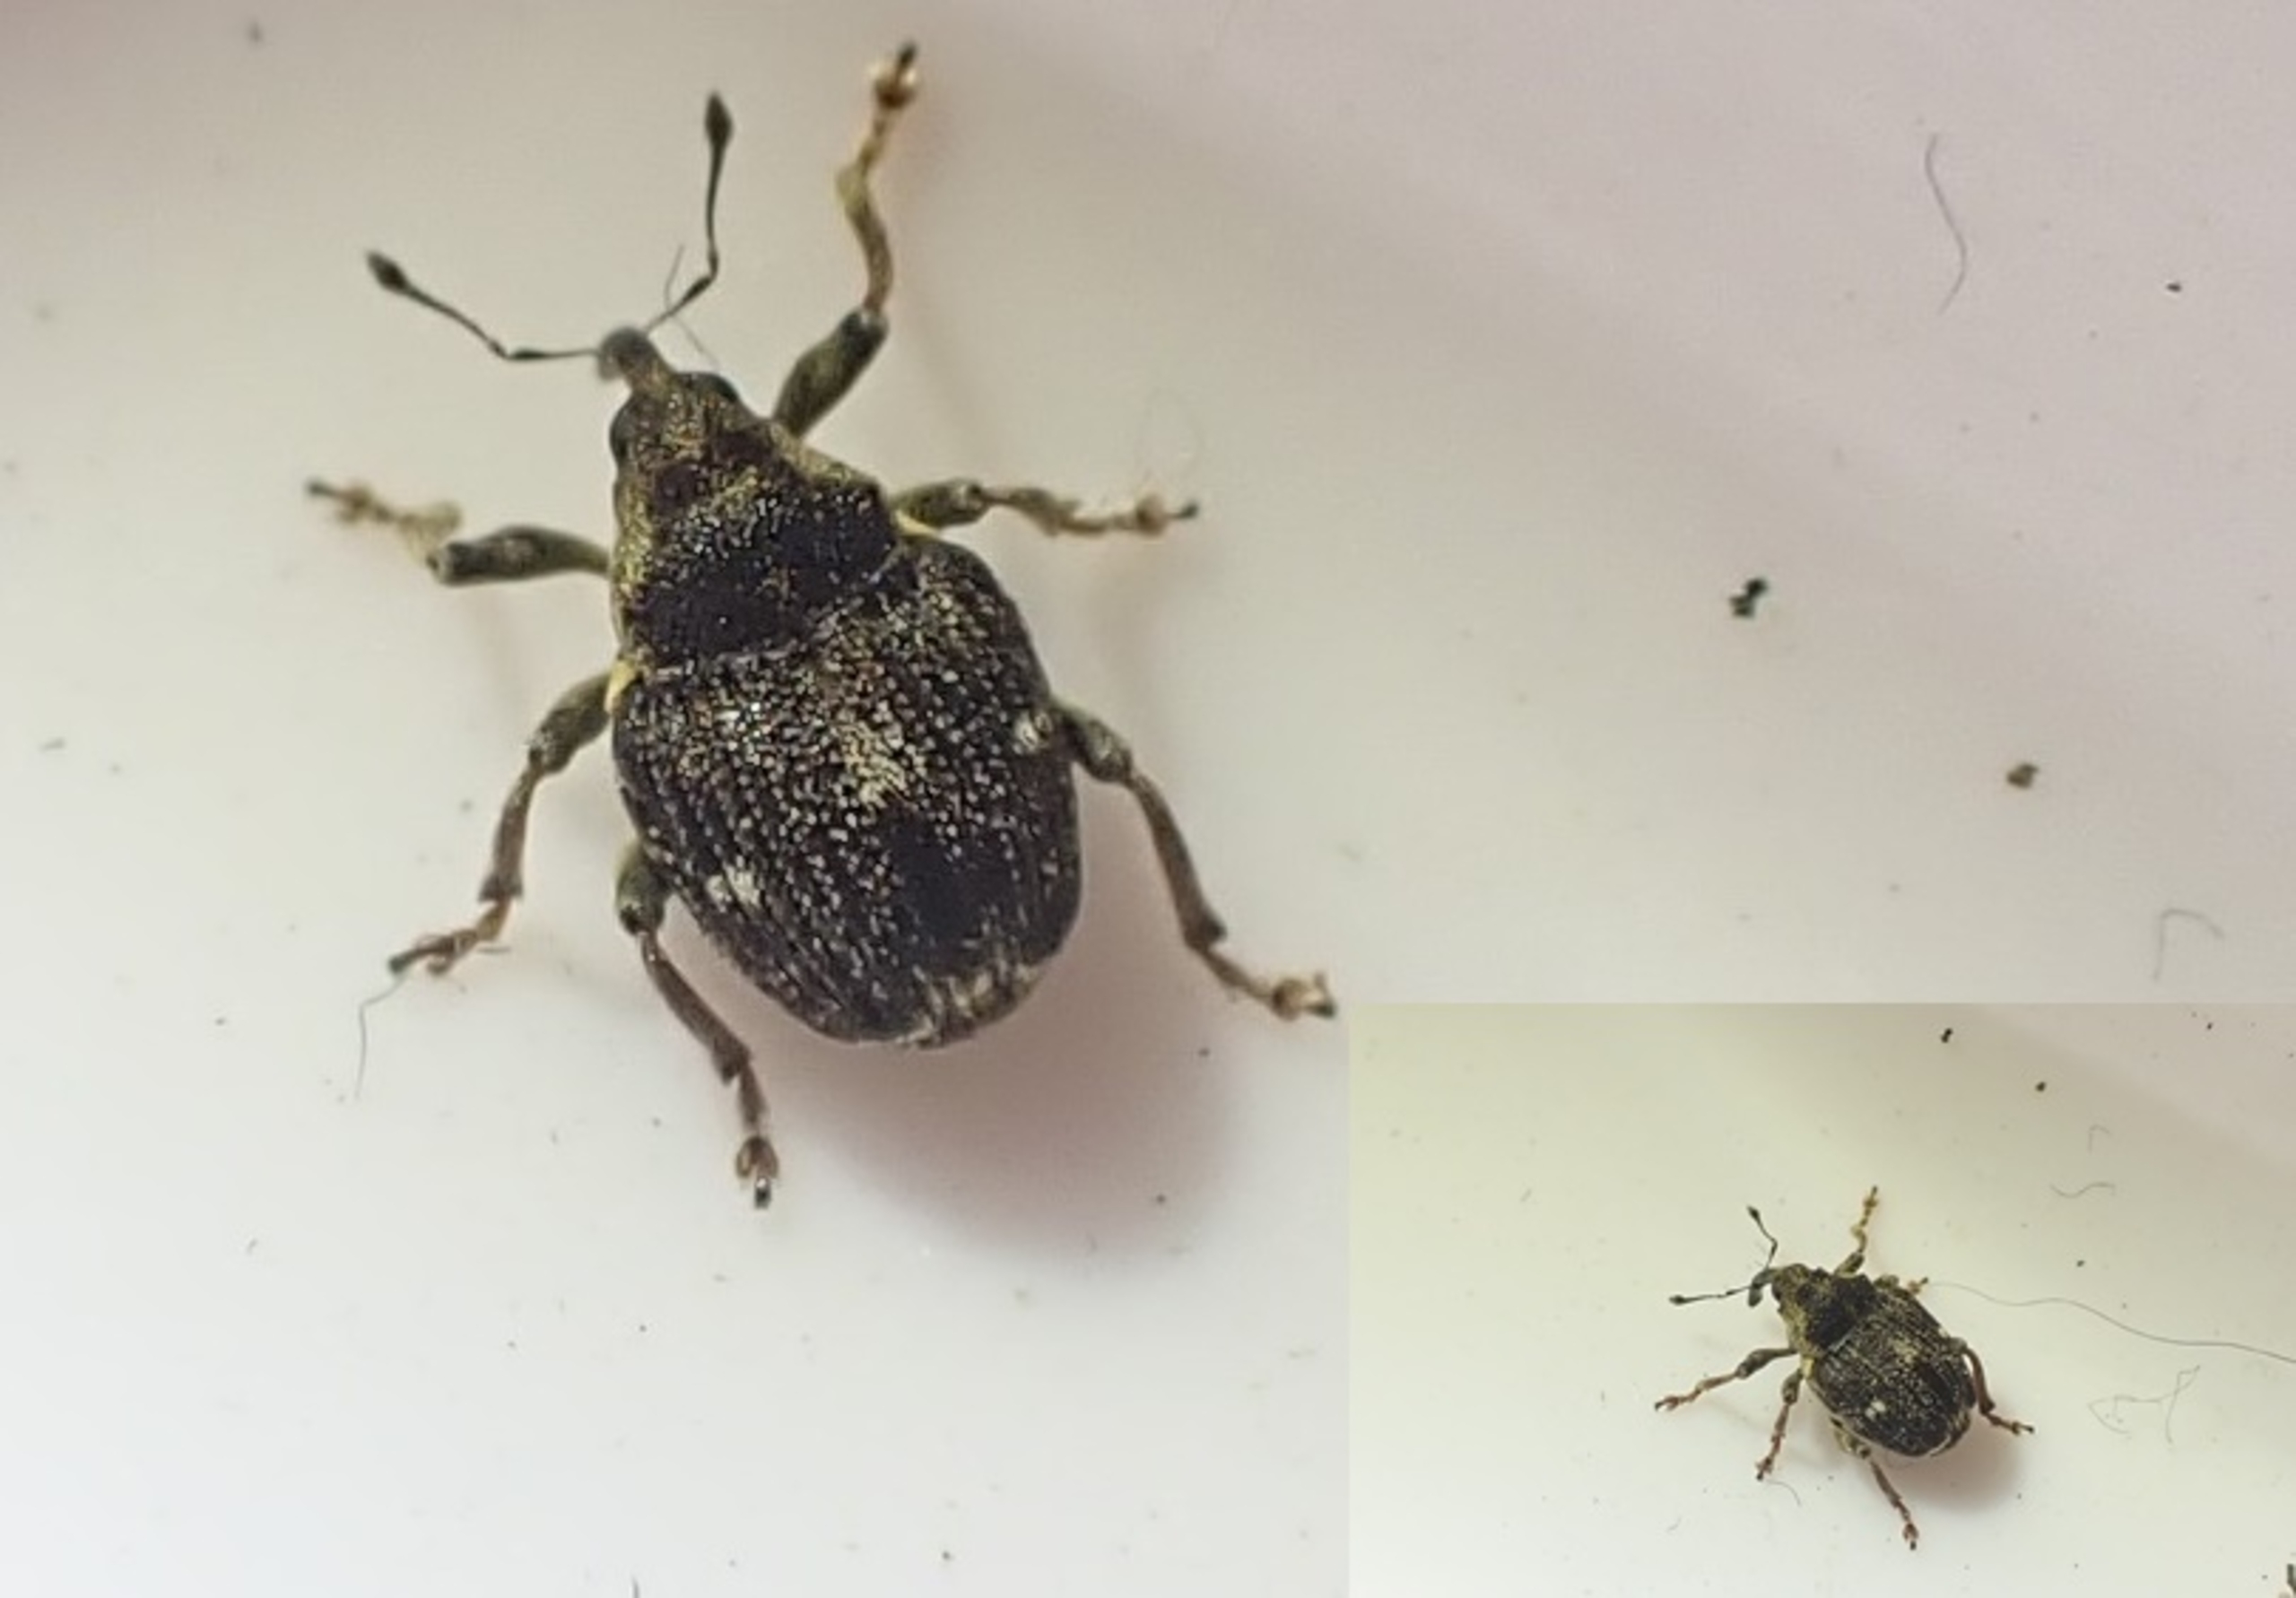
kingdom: Animalia
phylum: Arthropoda
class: Insecta
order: Coleoptera
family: Curculionidae
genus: Nedyus
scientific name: Nedyus quadrimaculatus
